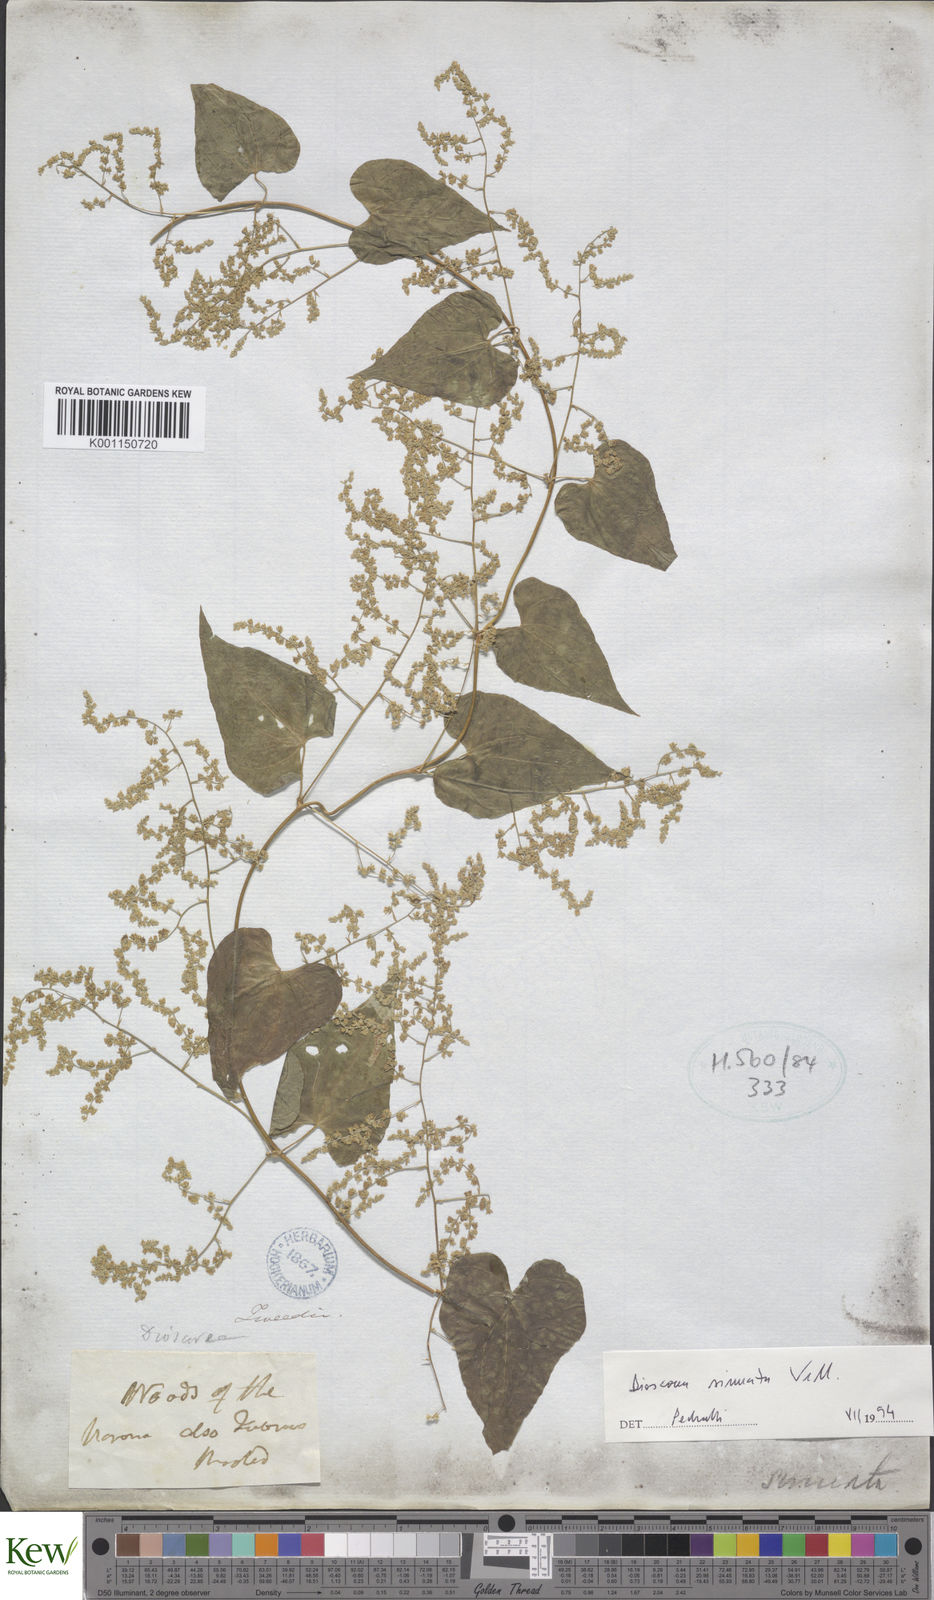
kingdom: Plantae
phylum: Tracheophyta
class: Liliopsida
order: Dioscoreales
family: Dioscoreaceae
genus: Dioscorea
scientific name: Dioscorea sinuata
